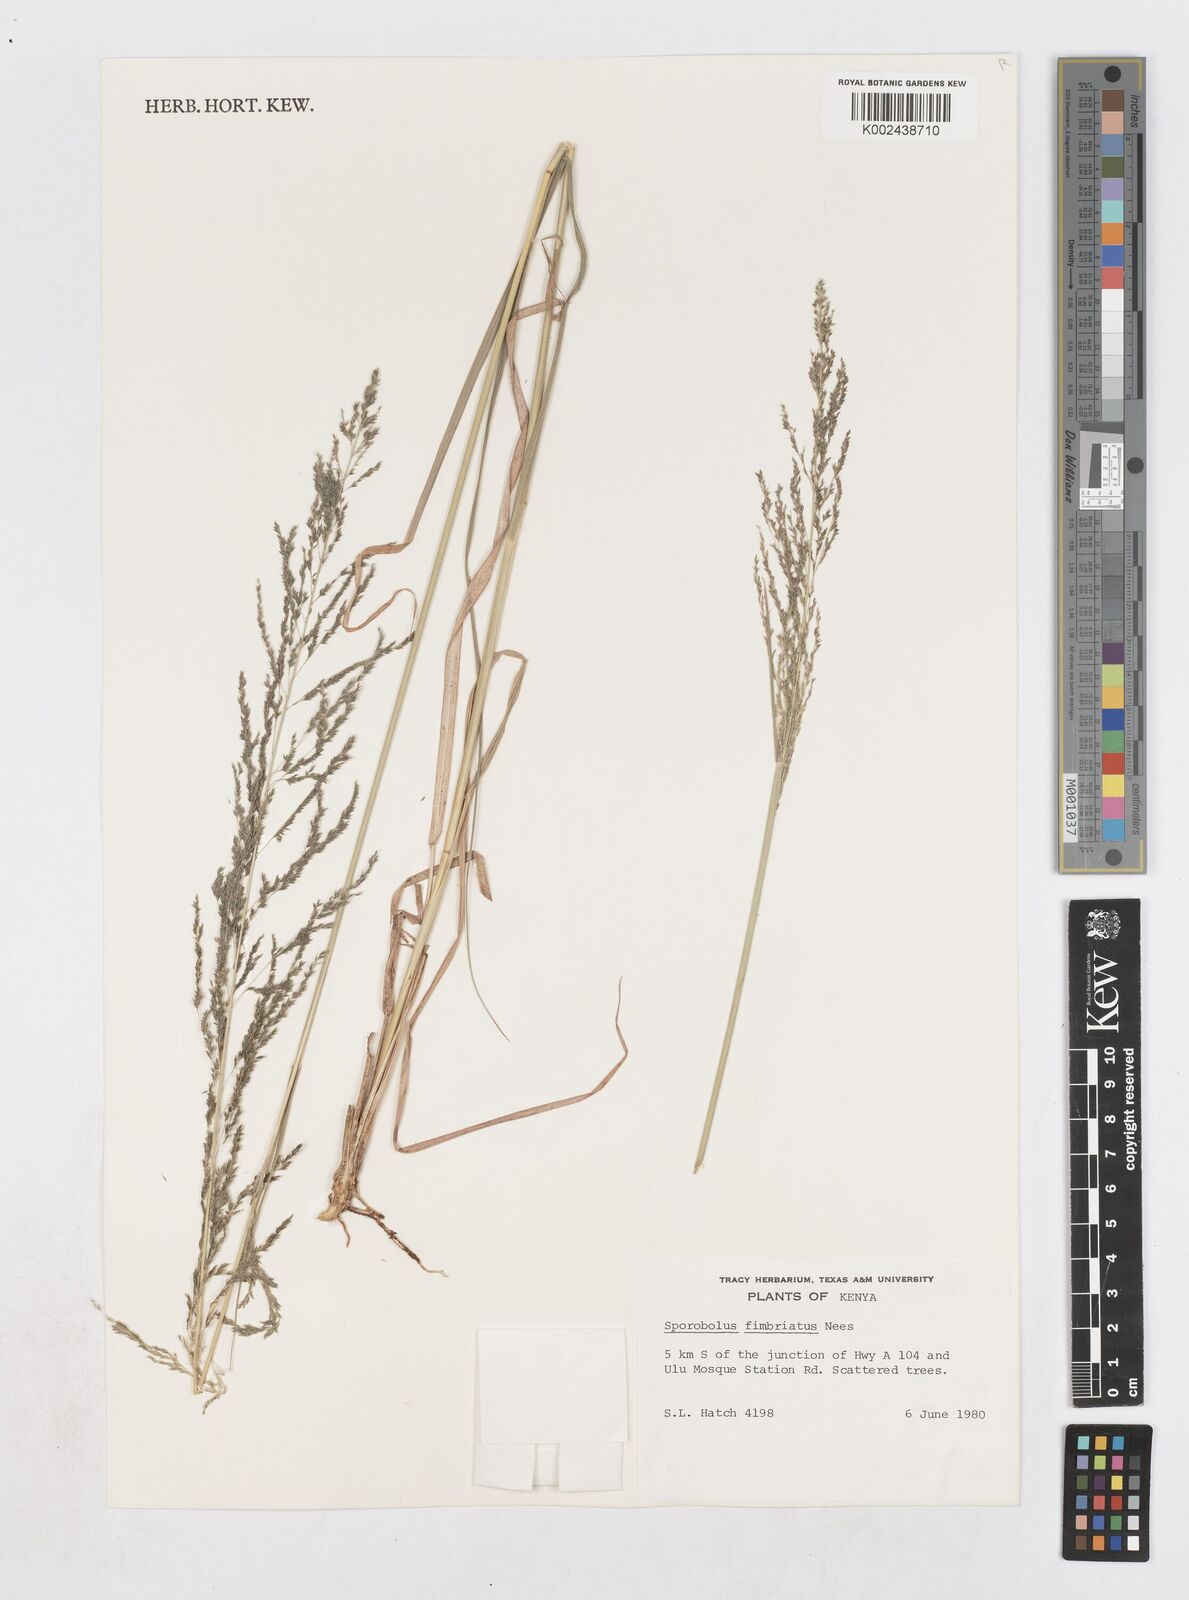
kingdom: Plantae
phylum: Tracheophyta
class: Liliopsida
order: Poales
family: Poaceae
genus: Sporobolus
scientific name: Sporobolus fimbriatus
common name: Fringed dropseed
